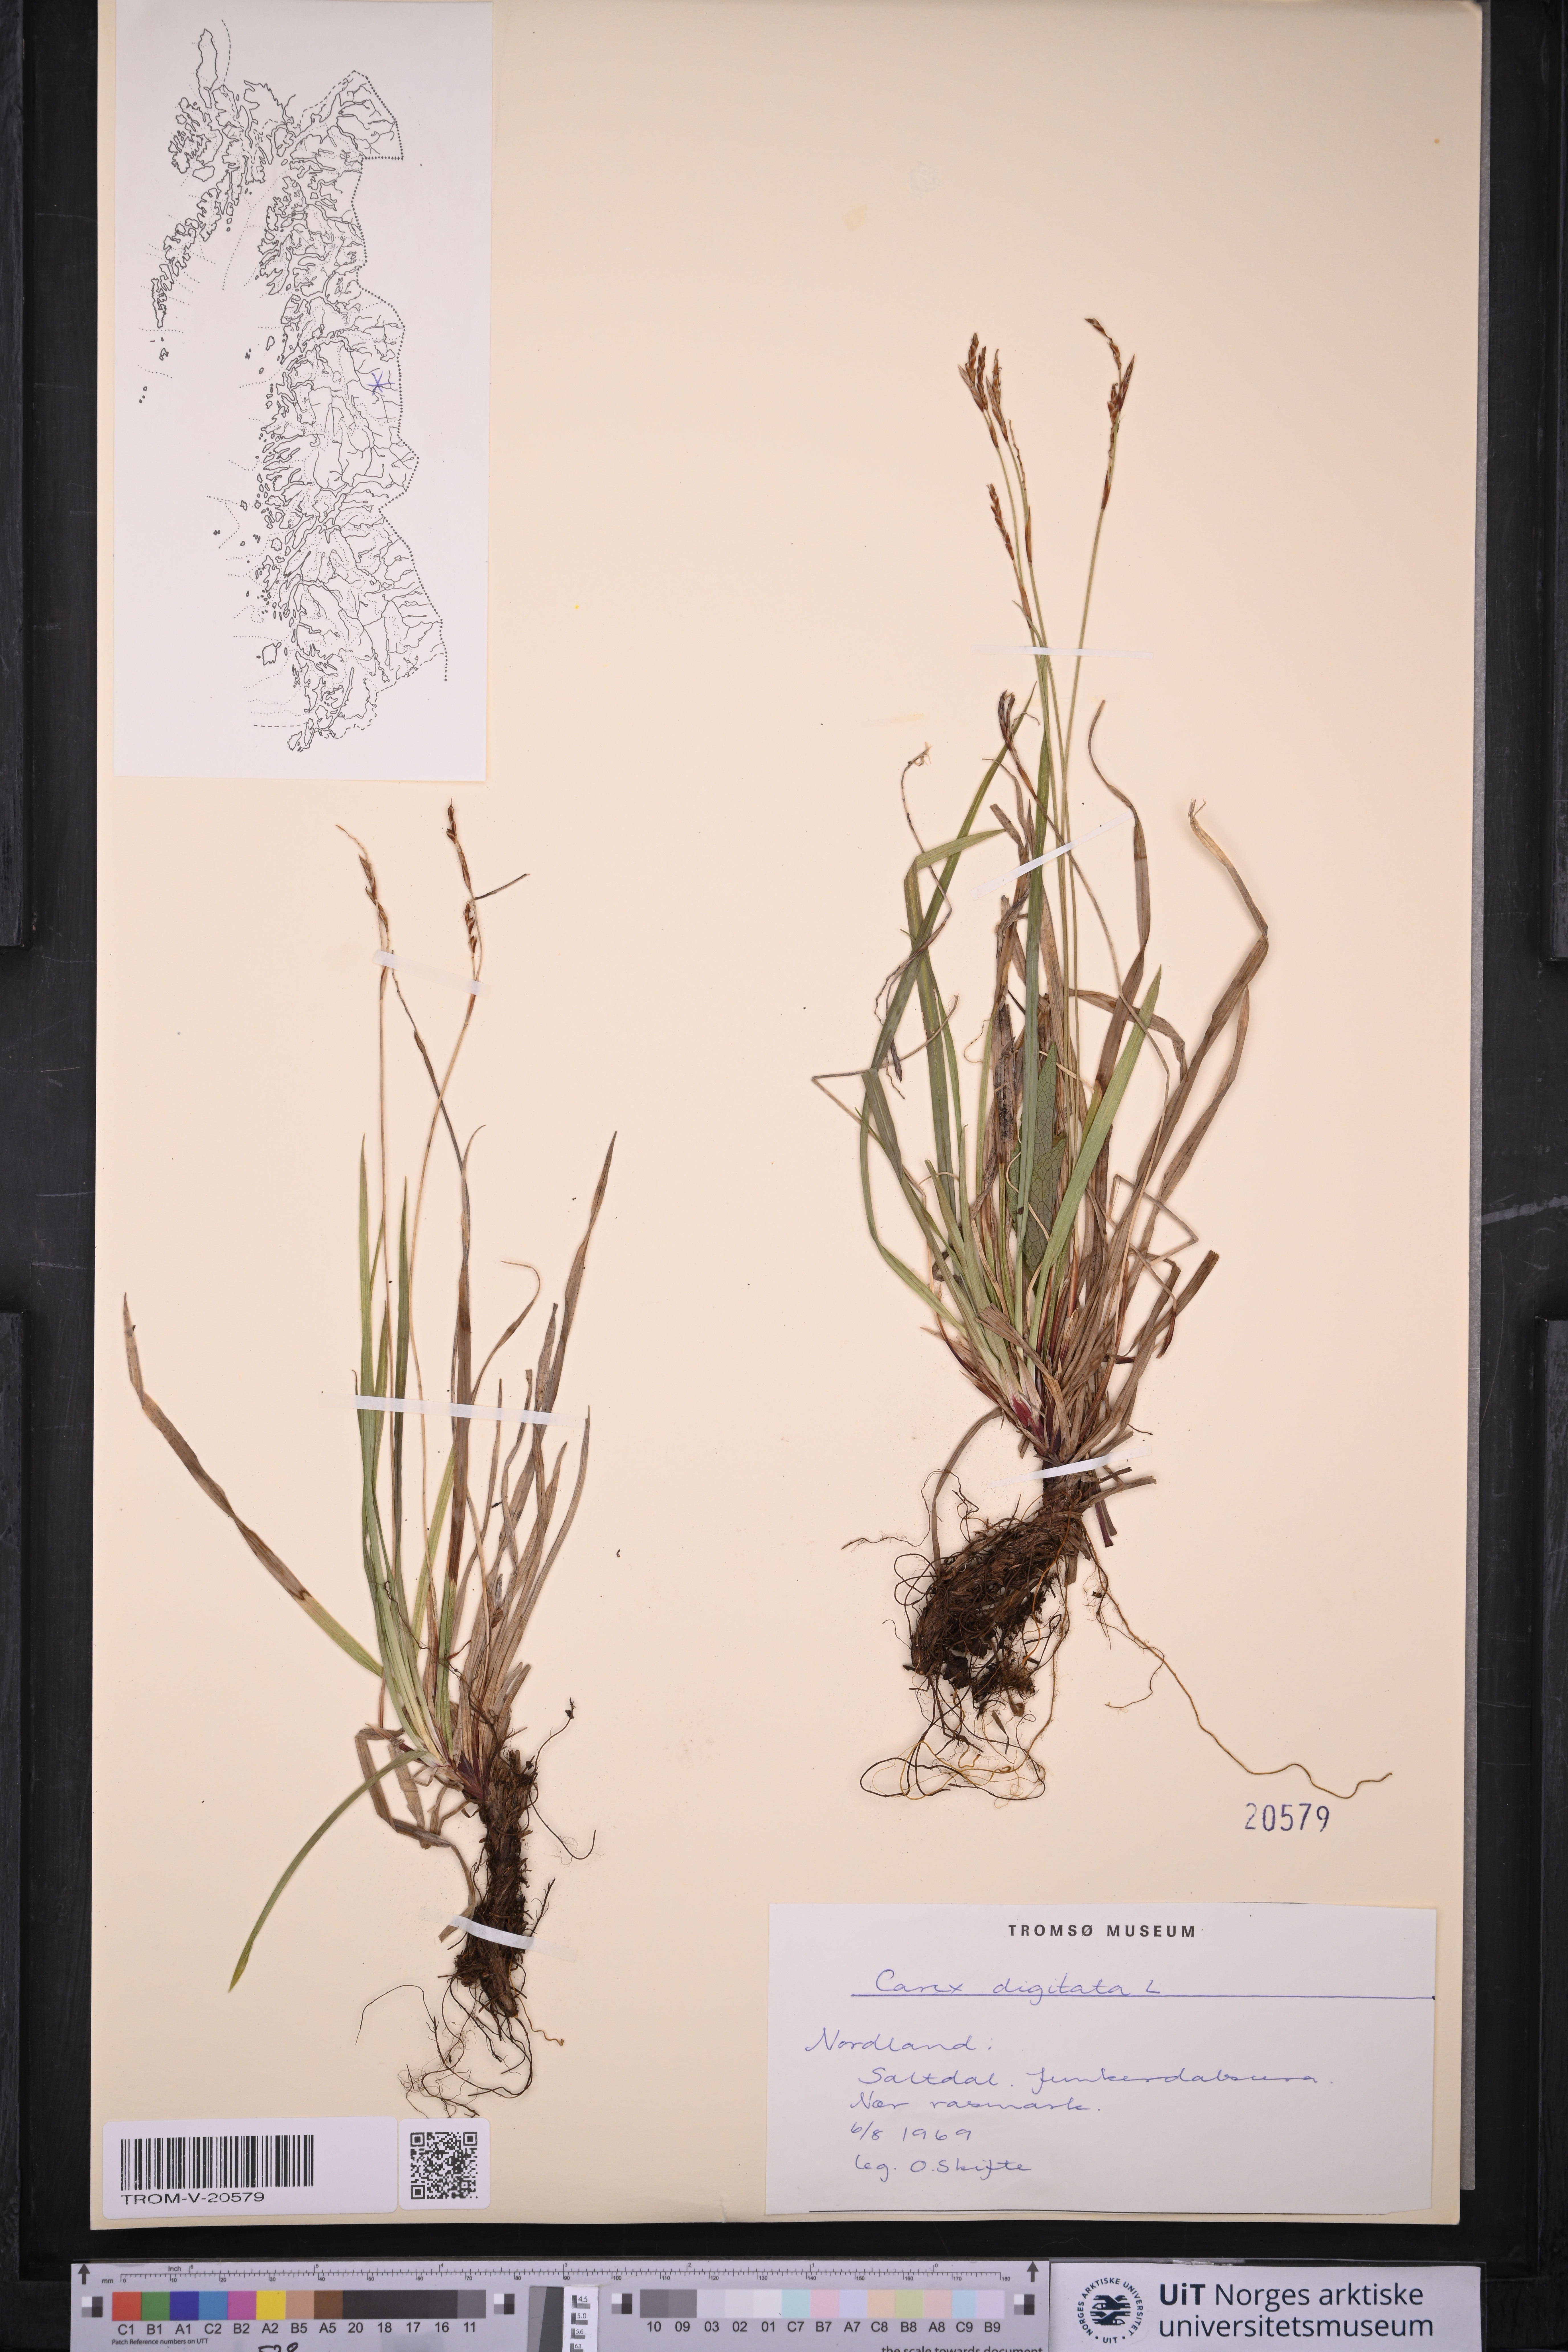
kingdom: Plantae
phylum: Tracheophyta
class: Liliopsida
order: Poales
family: Cyperaceae
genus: Carex
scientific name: Carex digitata
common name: Fingered sedge
